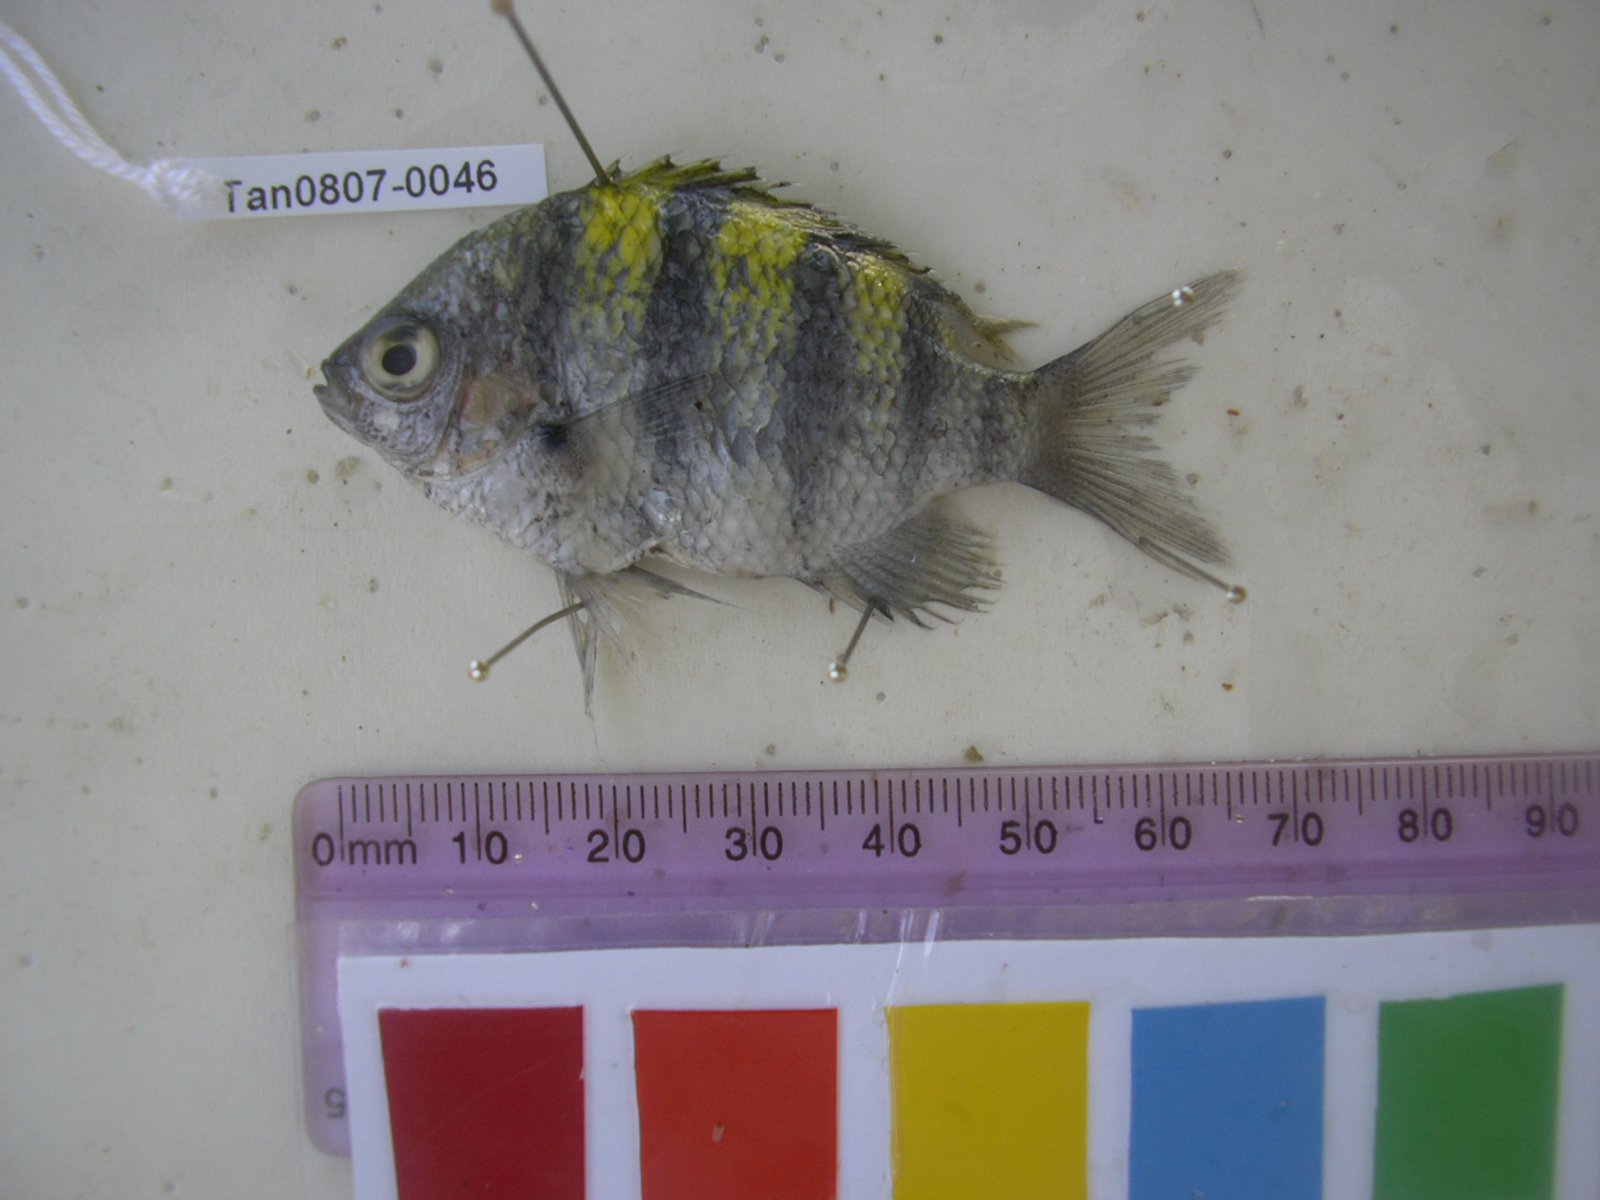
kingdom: Animalia
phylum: Chordata
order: Perciformes
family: Pomacentridae
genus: Abudefduf
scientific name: Abudefduf vaigiensis
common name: Indo-pacific sergeant
